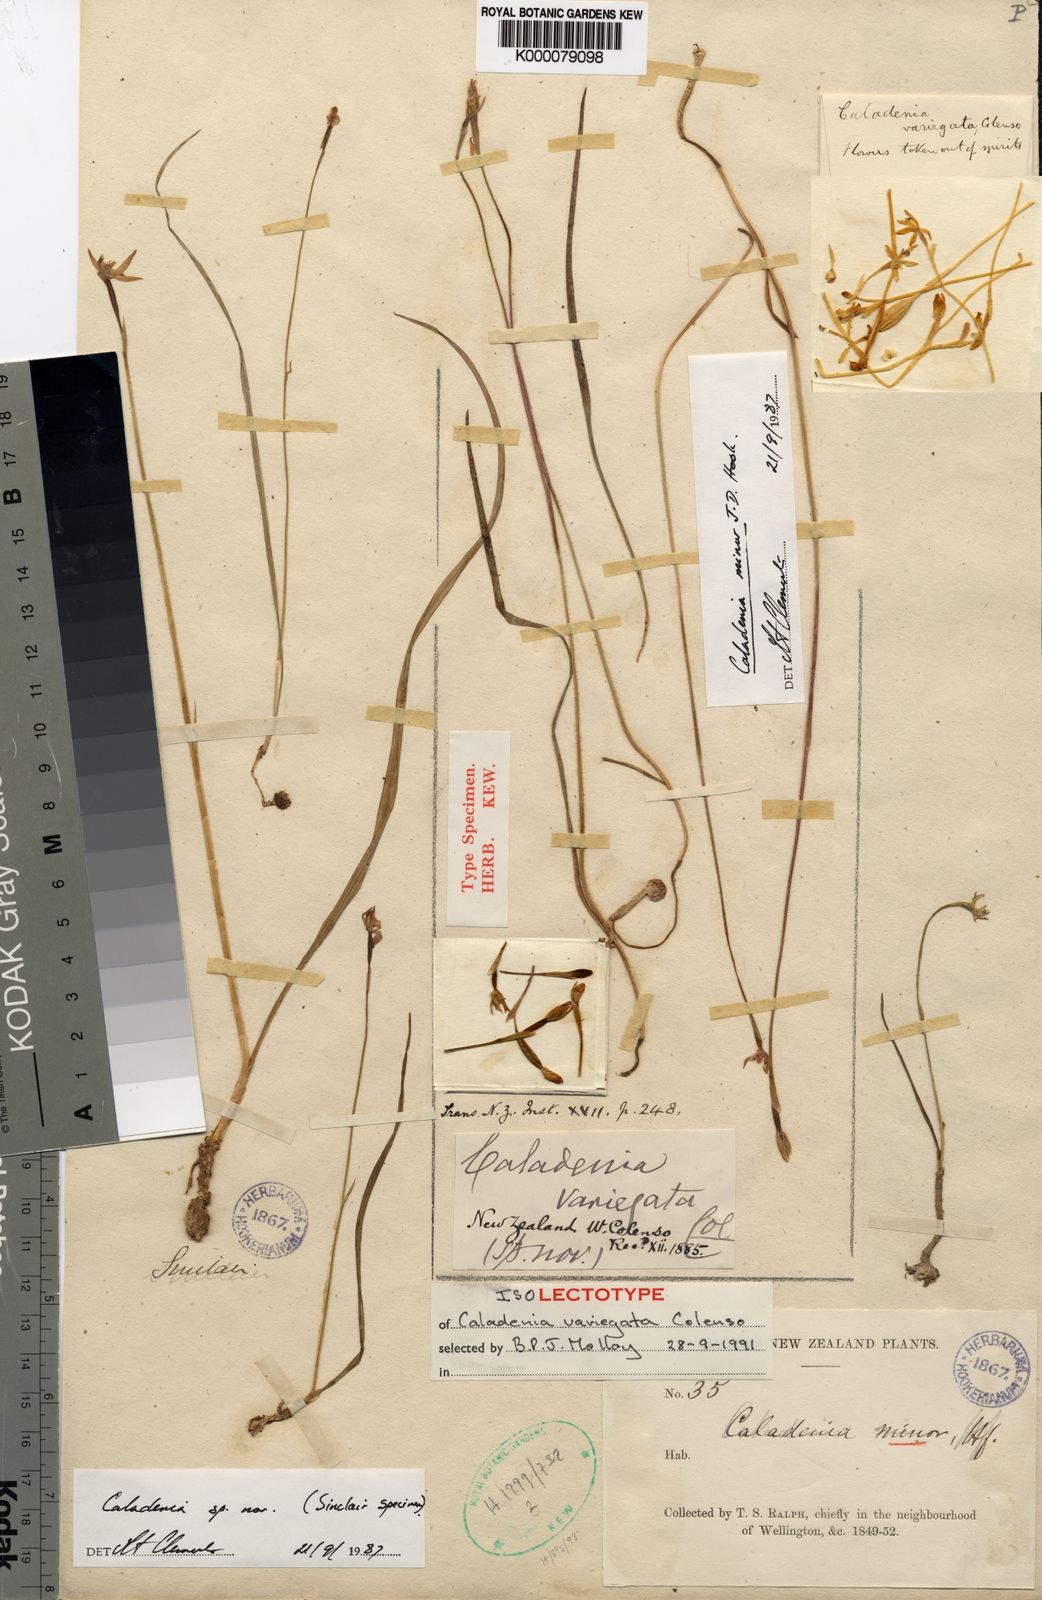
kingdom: Plantae
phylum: Tracheophyta
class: Liliopsida
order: Asparagales
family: Orchidaceae
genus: Caladenia
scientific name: Caladenia minor
